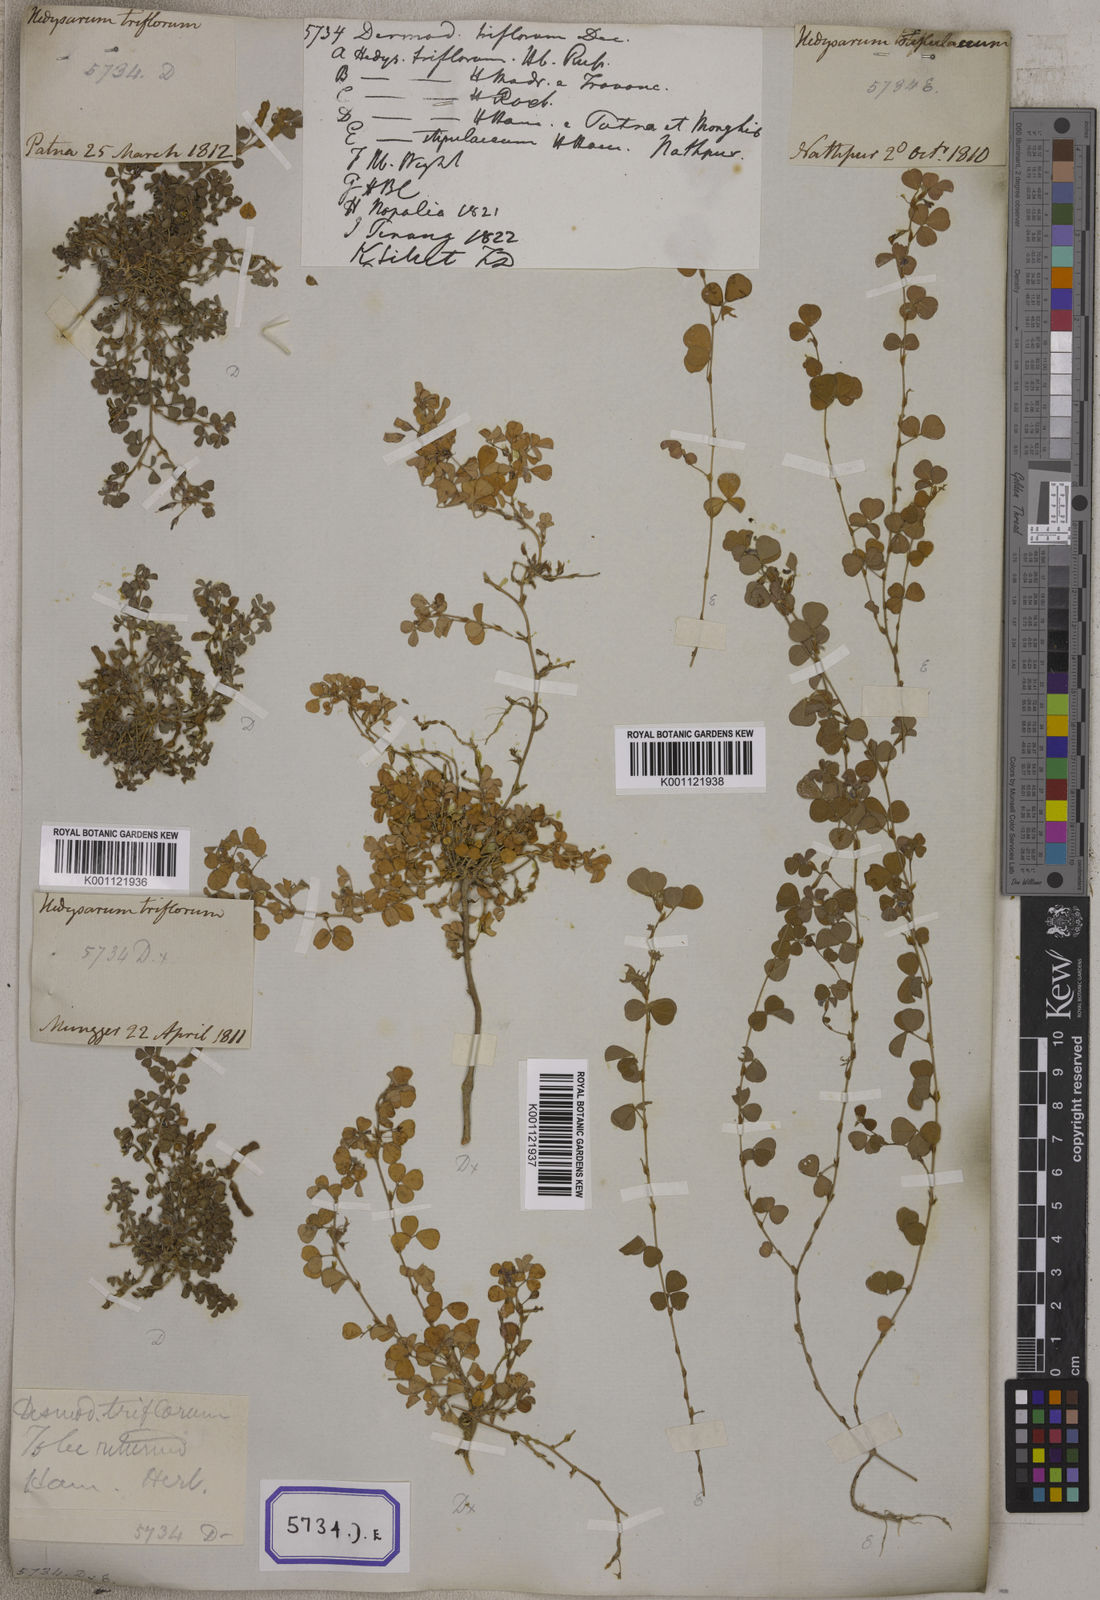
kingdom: Plantae
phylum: Tracheophyta
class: Magnoliopsida
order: Fabales
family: Fabaceae
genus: Desmodium
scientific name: Desmodium
